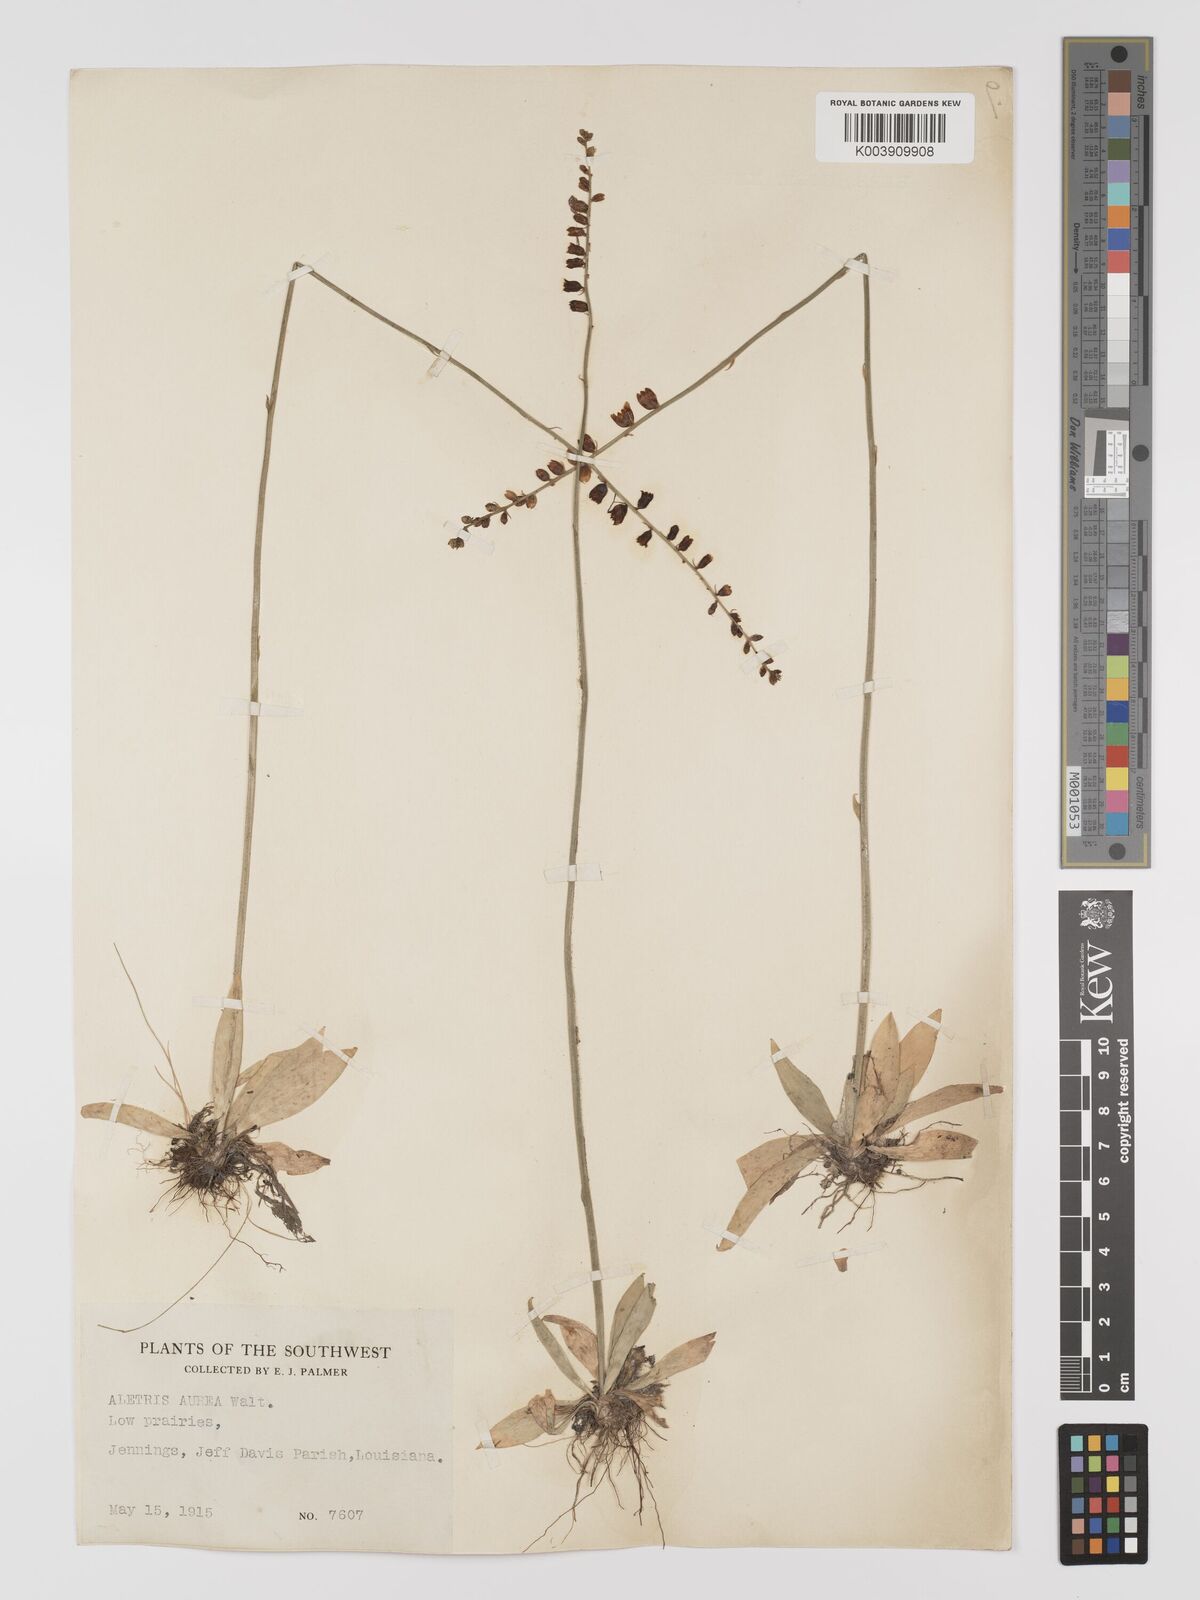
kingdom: Plantae
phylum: Tracheophyta
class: Liliopsida
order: Dioscoreales
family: Nartheciaceae
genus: Aletris
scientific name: Aletris aurea
